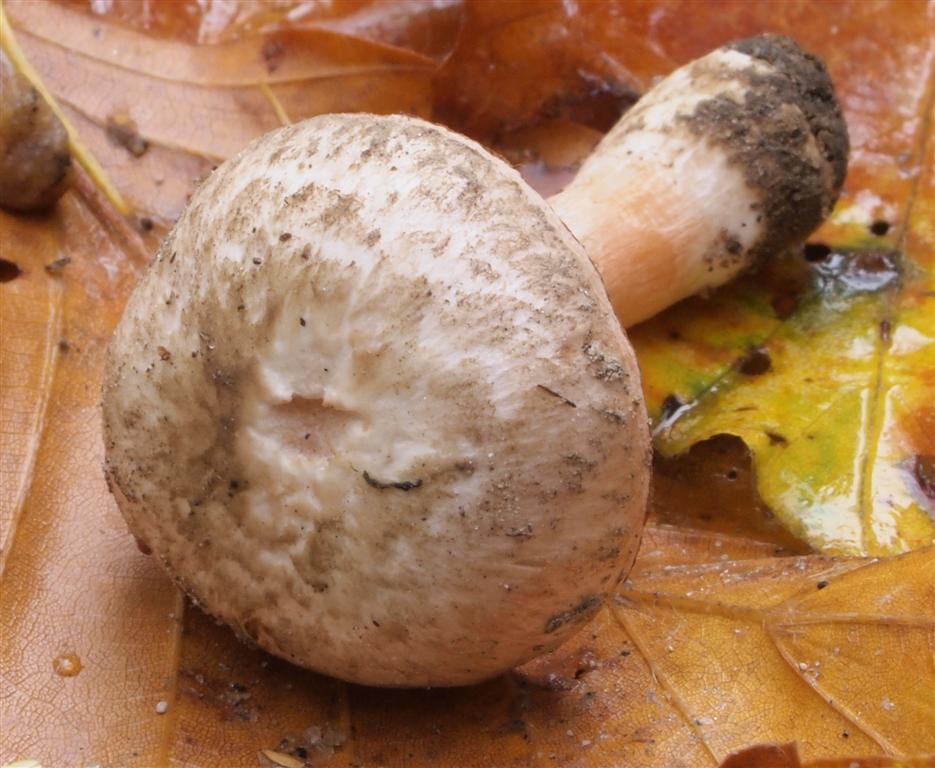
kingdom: Fungi
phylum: Basidiomycota
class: Agaricomycetes
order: Agaricales
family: Inocybaceae
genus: Inocybe
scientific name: Inocybe erinaceomorpha
